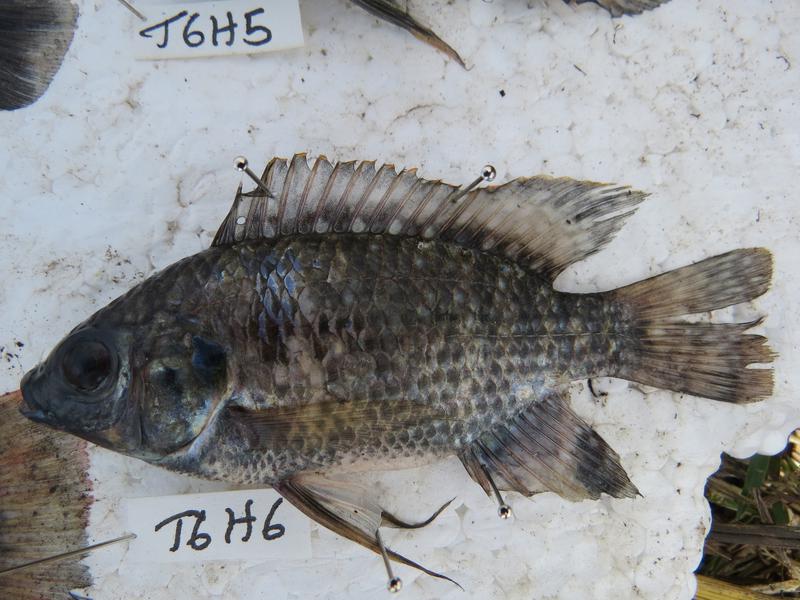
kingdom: Animalia
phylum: Chordata
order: Perciformes
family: Cichlidae
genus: Oreochromis
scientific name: Oreochromis leucostictus
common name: Blue spotted tilapia
